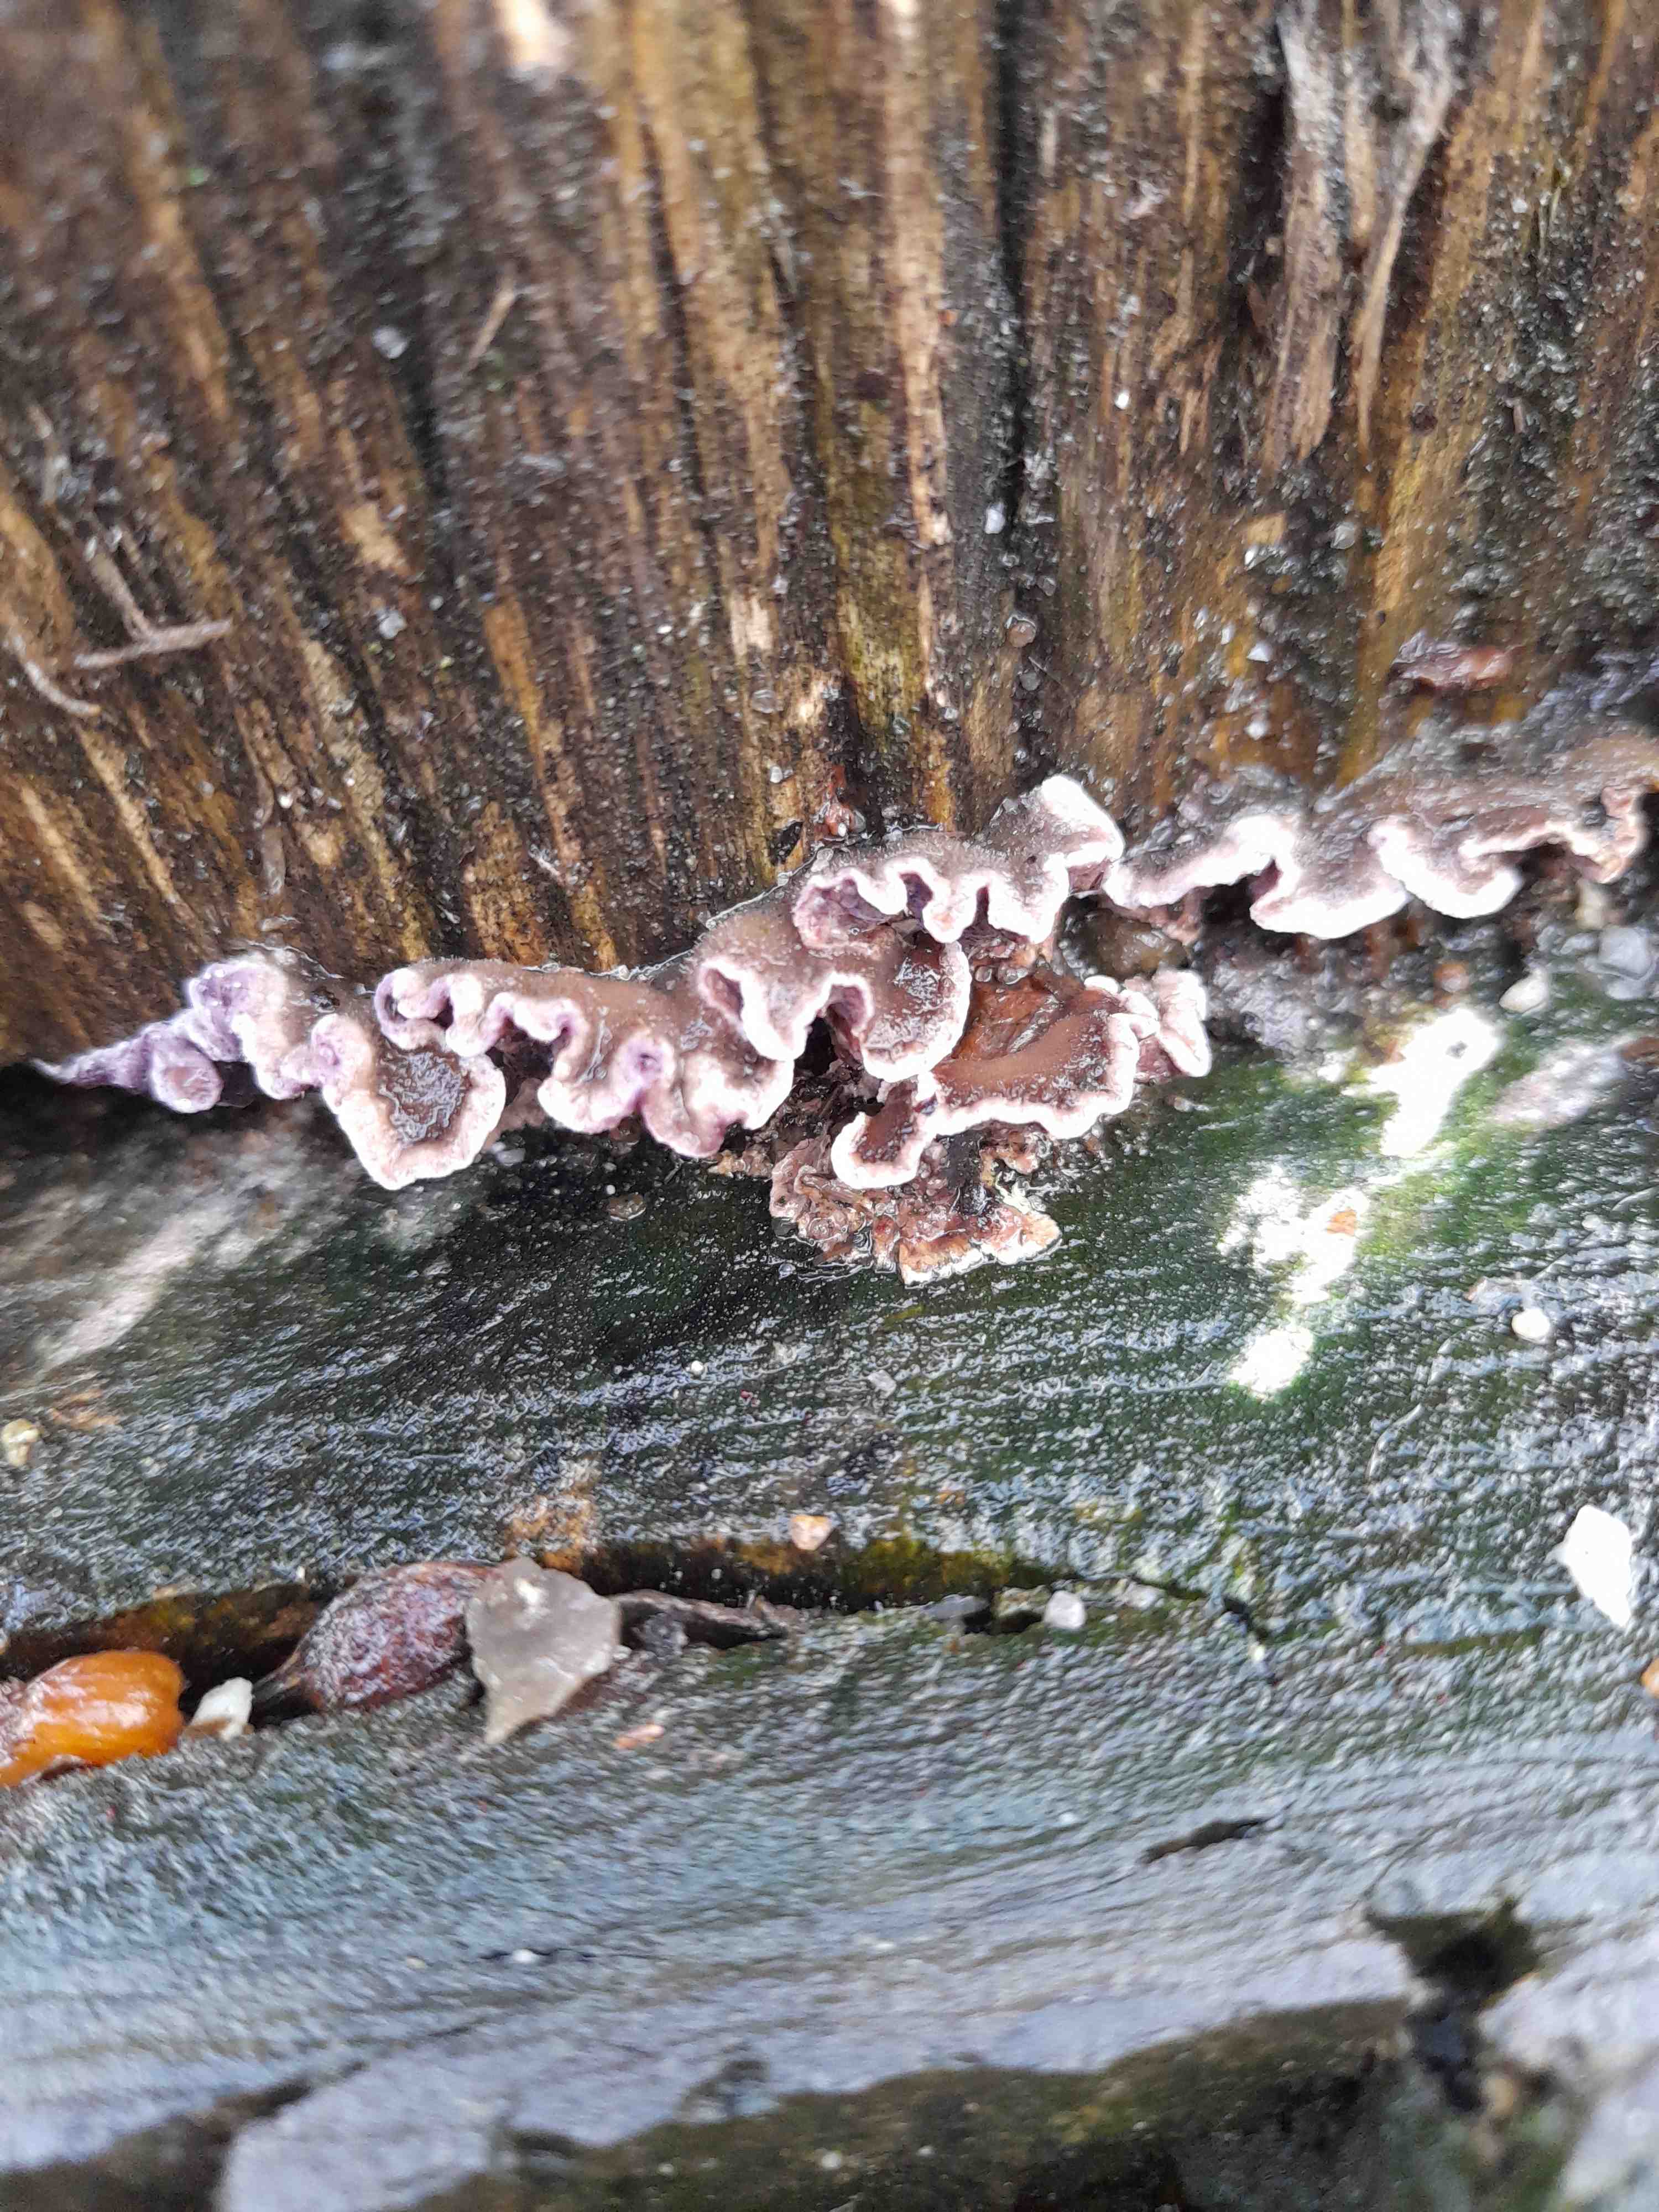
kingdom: Fungi
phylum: Basidiomycota
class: Agaricomycetes
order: Agaricales
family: Cyphellaceae
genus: Chondrostereum
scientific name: Chondrostereum purpureum
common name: purpurlædersvamp
